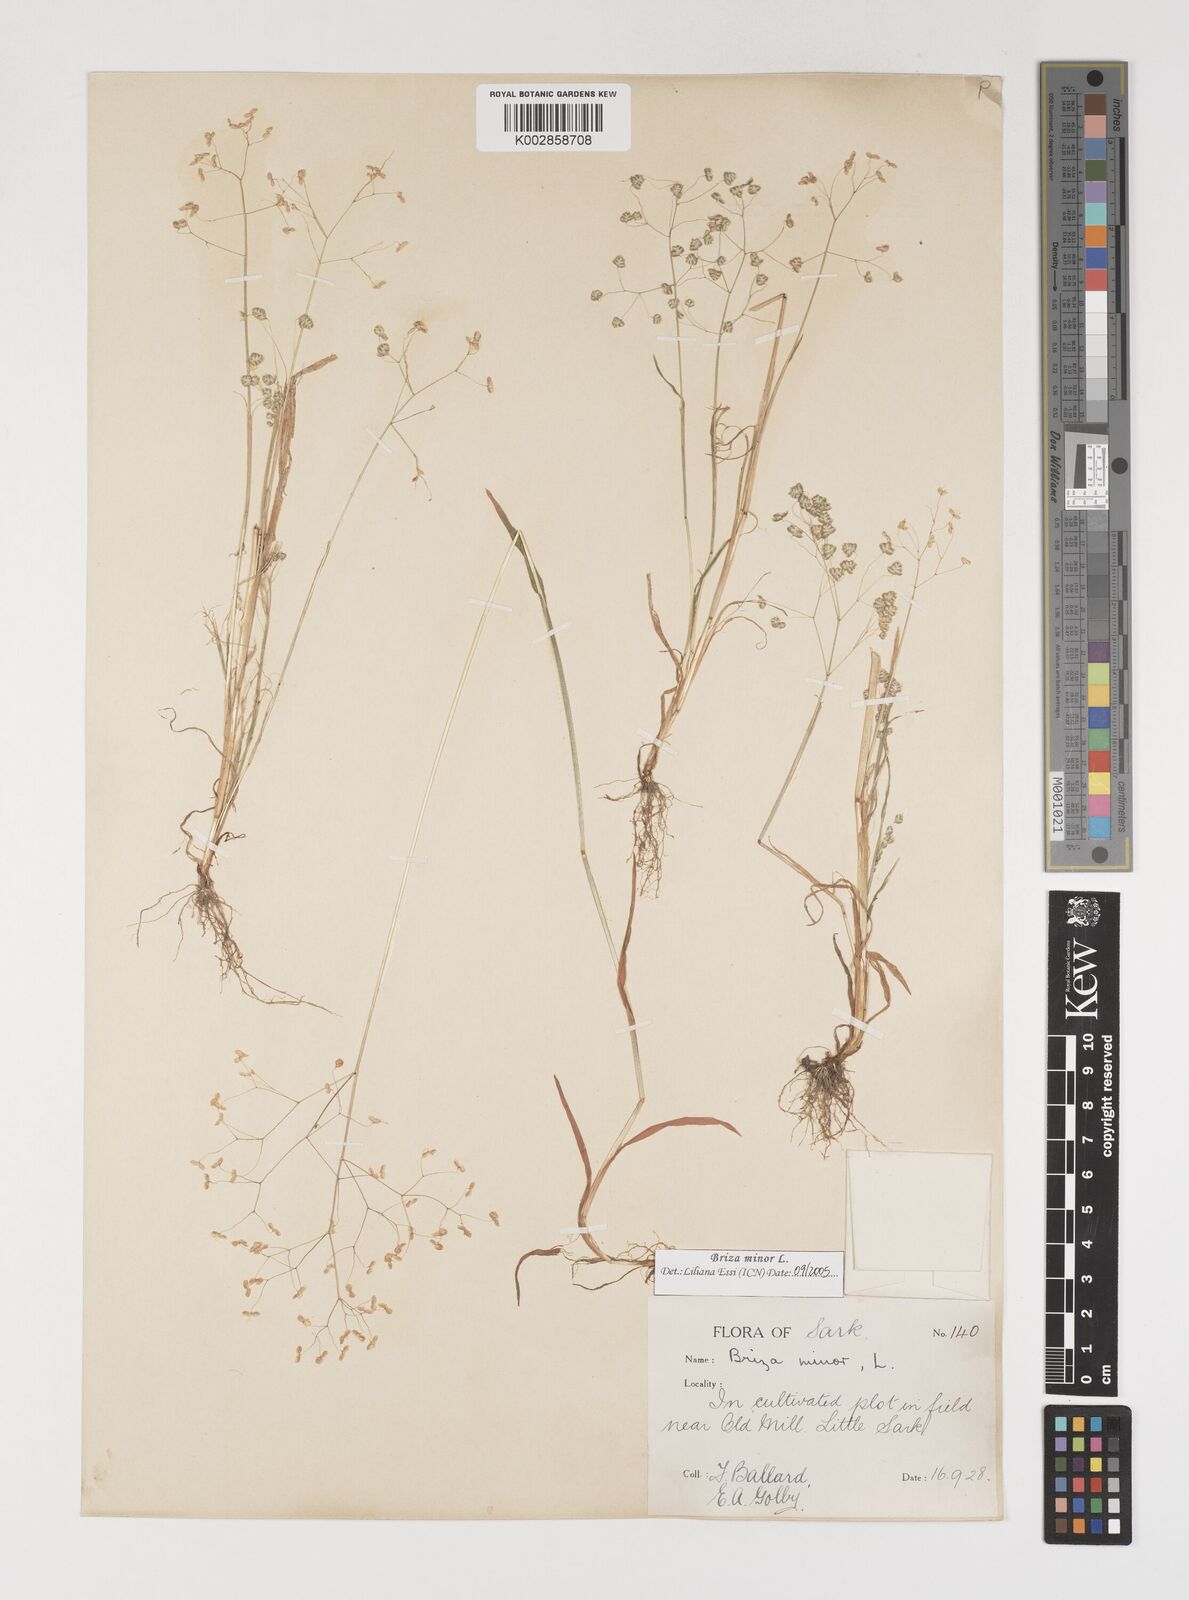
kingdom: Plantae
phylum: Tracheophyta
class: Liliopsida
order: Poales
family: Poaceae
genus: Briza
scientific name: Briza minor
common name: Lesser quaking-grass
